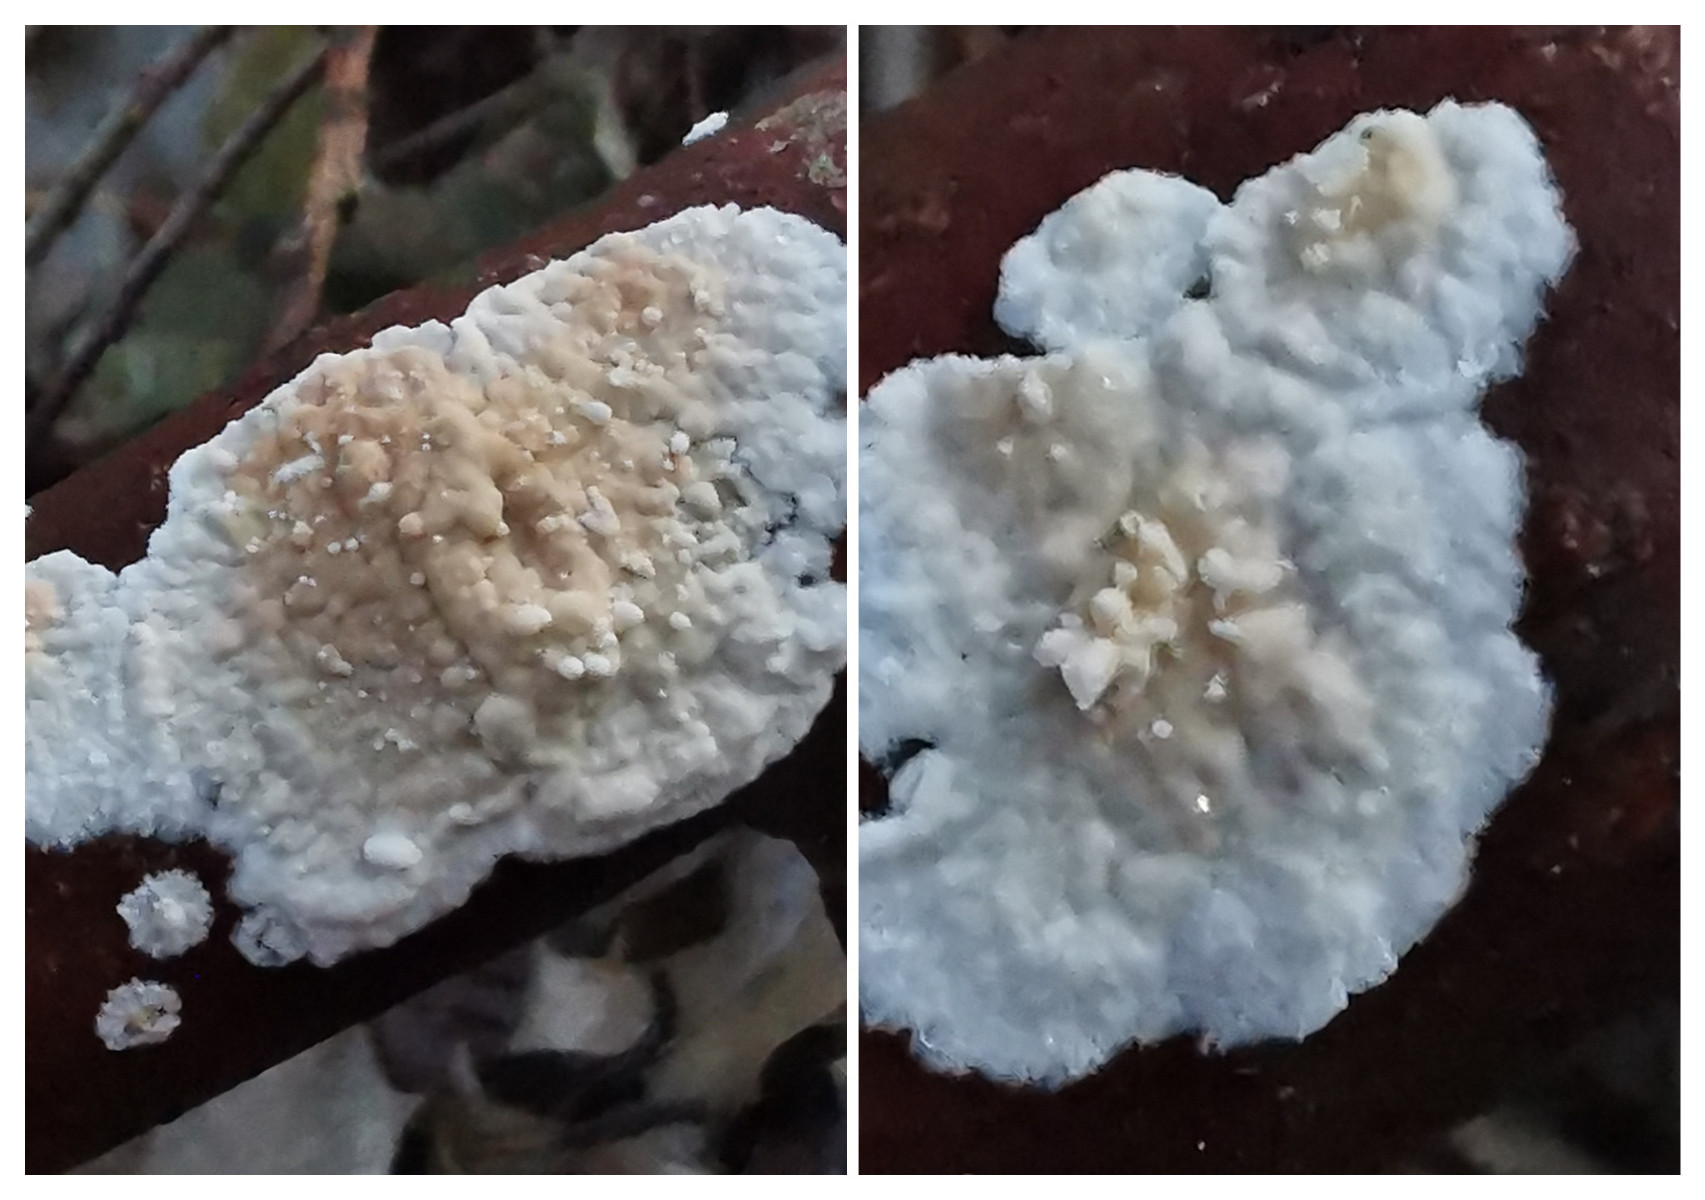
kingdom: Fungi
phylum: Basidiomycota
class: Agaricomycetes
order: Polyporales
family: Phanerochaetaceae
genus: Phanerochaete
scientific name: Phanerochaete
